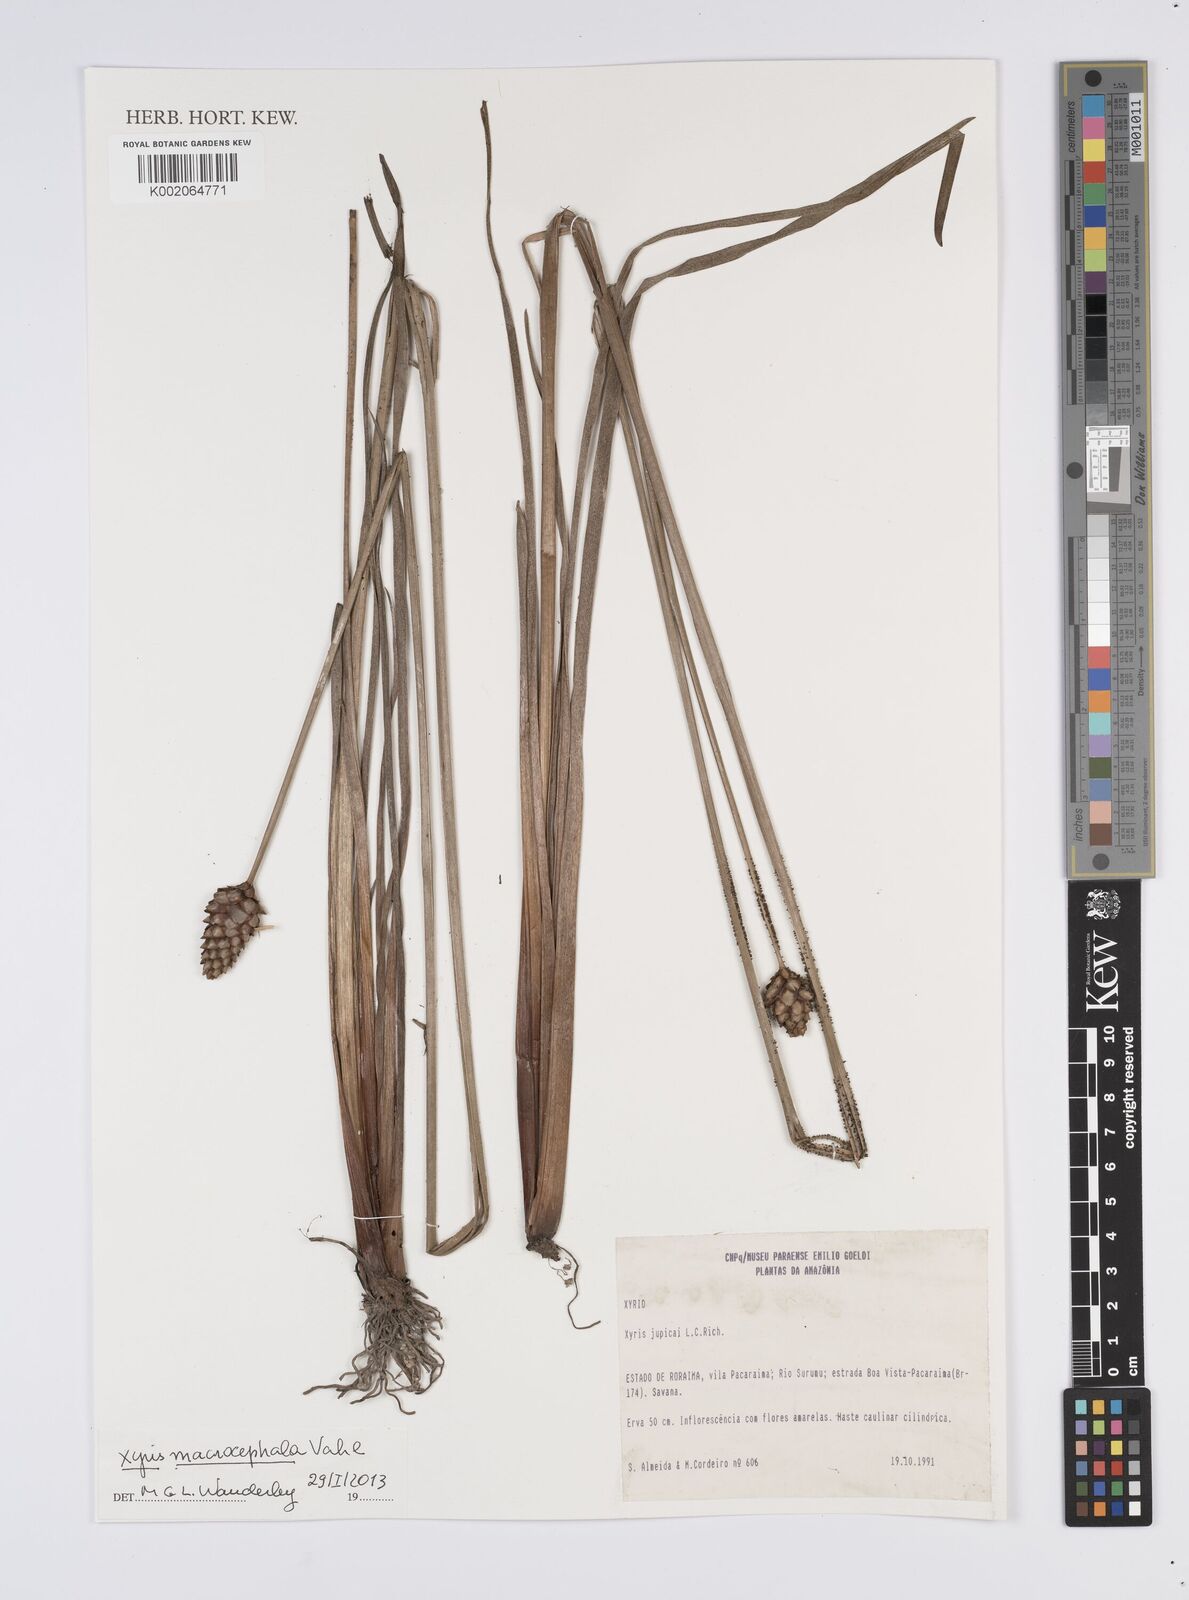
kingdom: Plantae
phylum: Tracheophyta
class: Liliopsida
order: Poales
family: Xyridaceae
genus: Xyris
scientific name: Xyris jupicai
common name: Richard's yelloweyed grass
